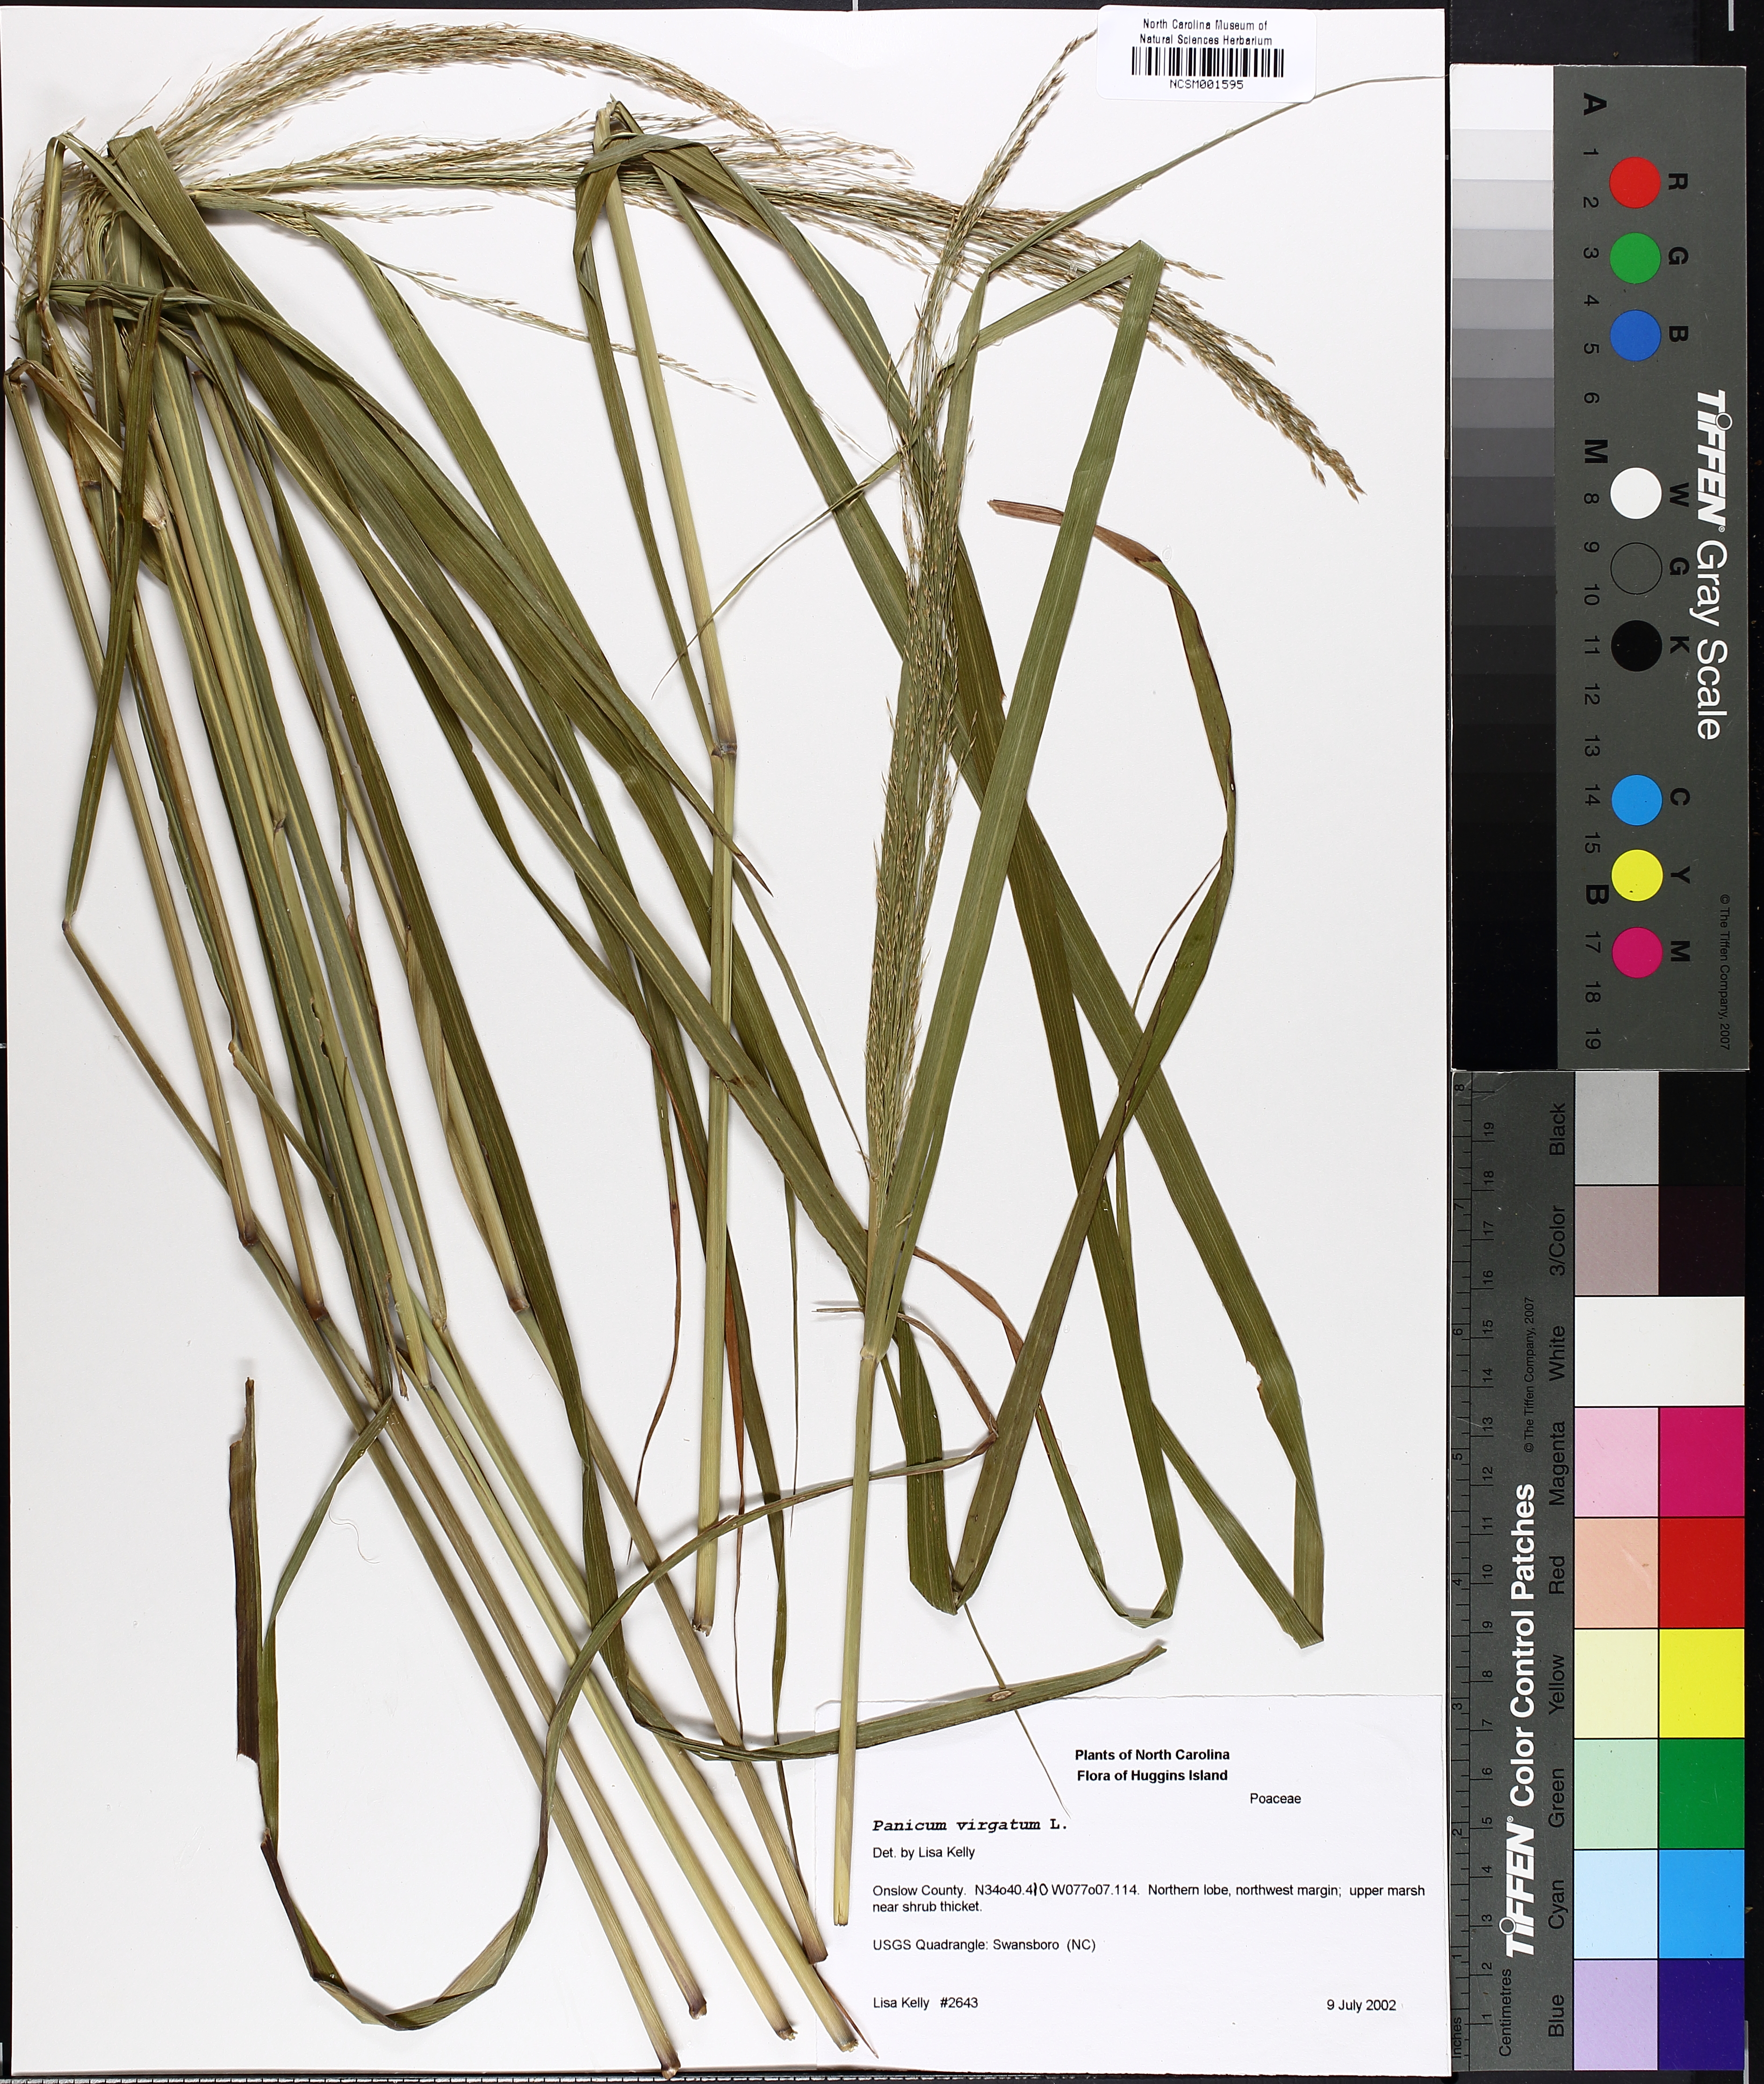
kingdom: Plantae
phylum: Tracheophyta
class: Liliopsida
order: Poales
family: Poaceae
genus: Panicum
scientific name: Panicum virgatum
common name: Switchgrass
